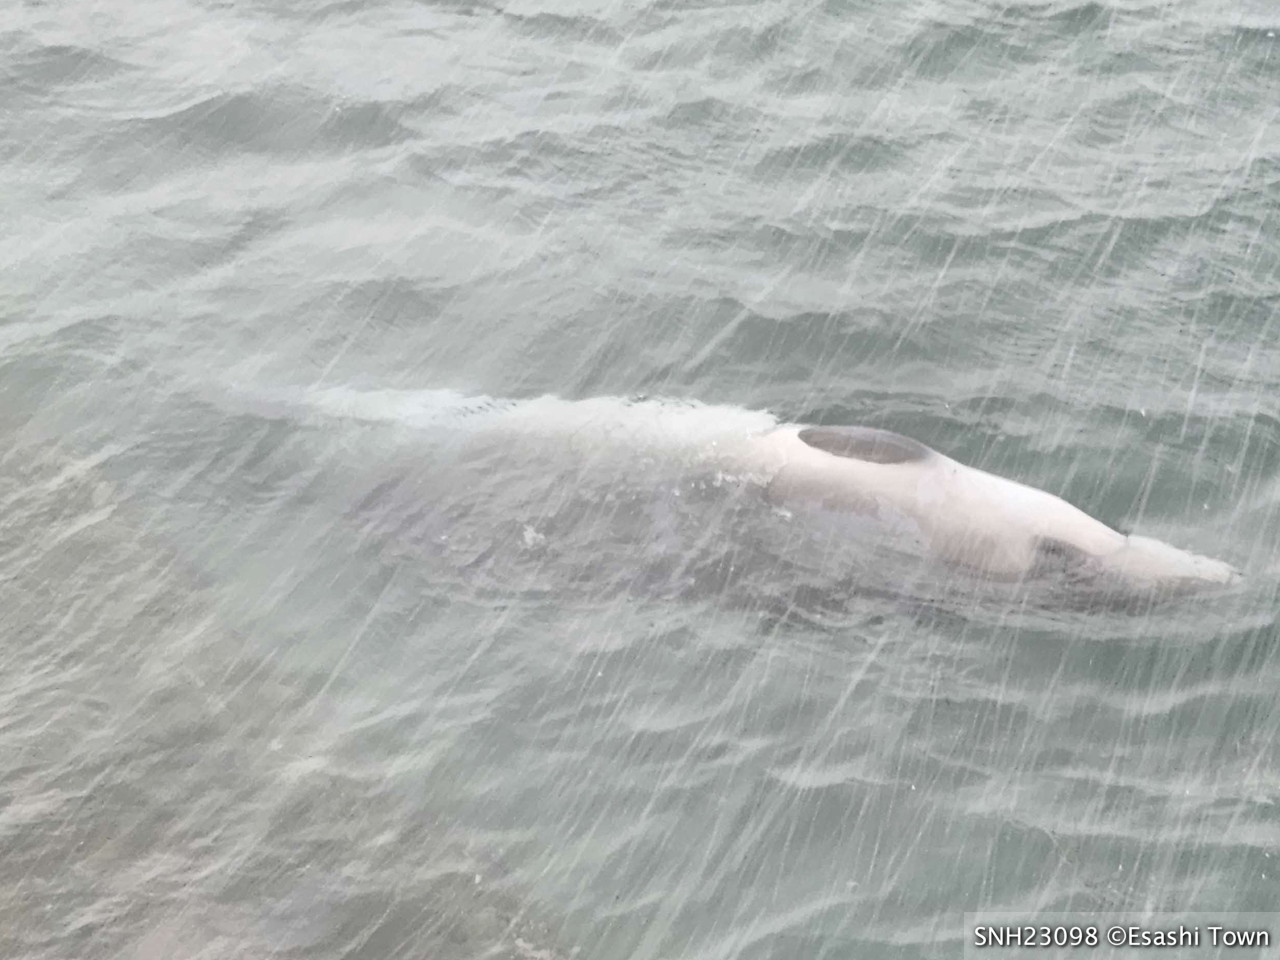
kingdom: Animalia
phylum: Chordata
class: Mammalia
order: Cetacea
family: Hyperoodontidae
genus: Mesoplodon
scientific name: Mesoplodon stejnegeri
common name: Stejneger's beaked whale
